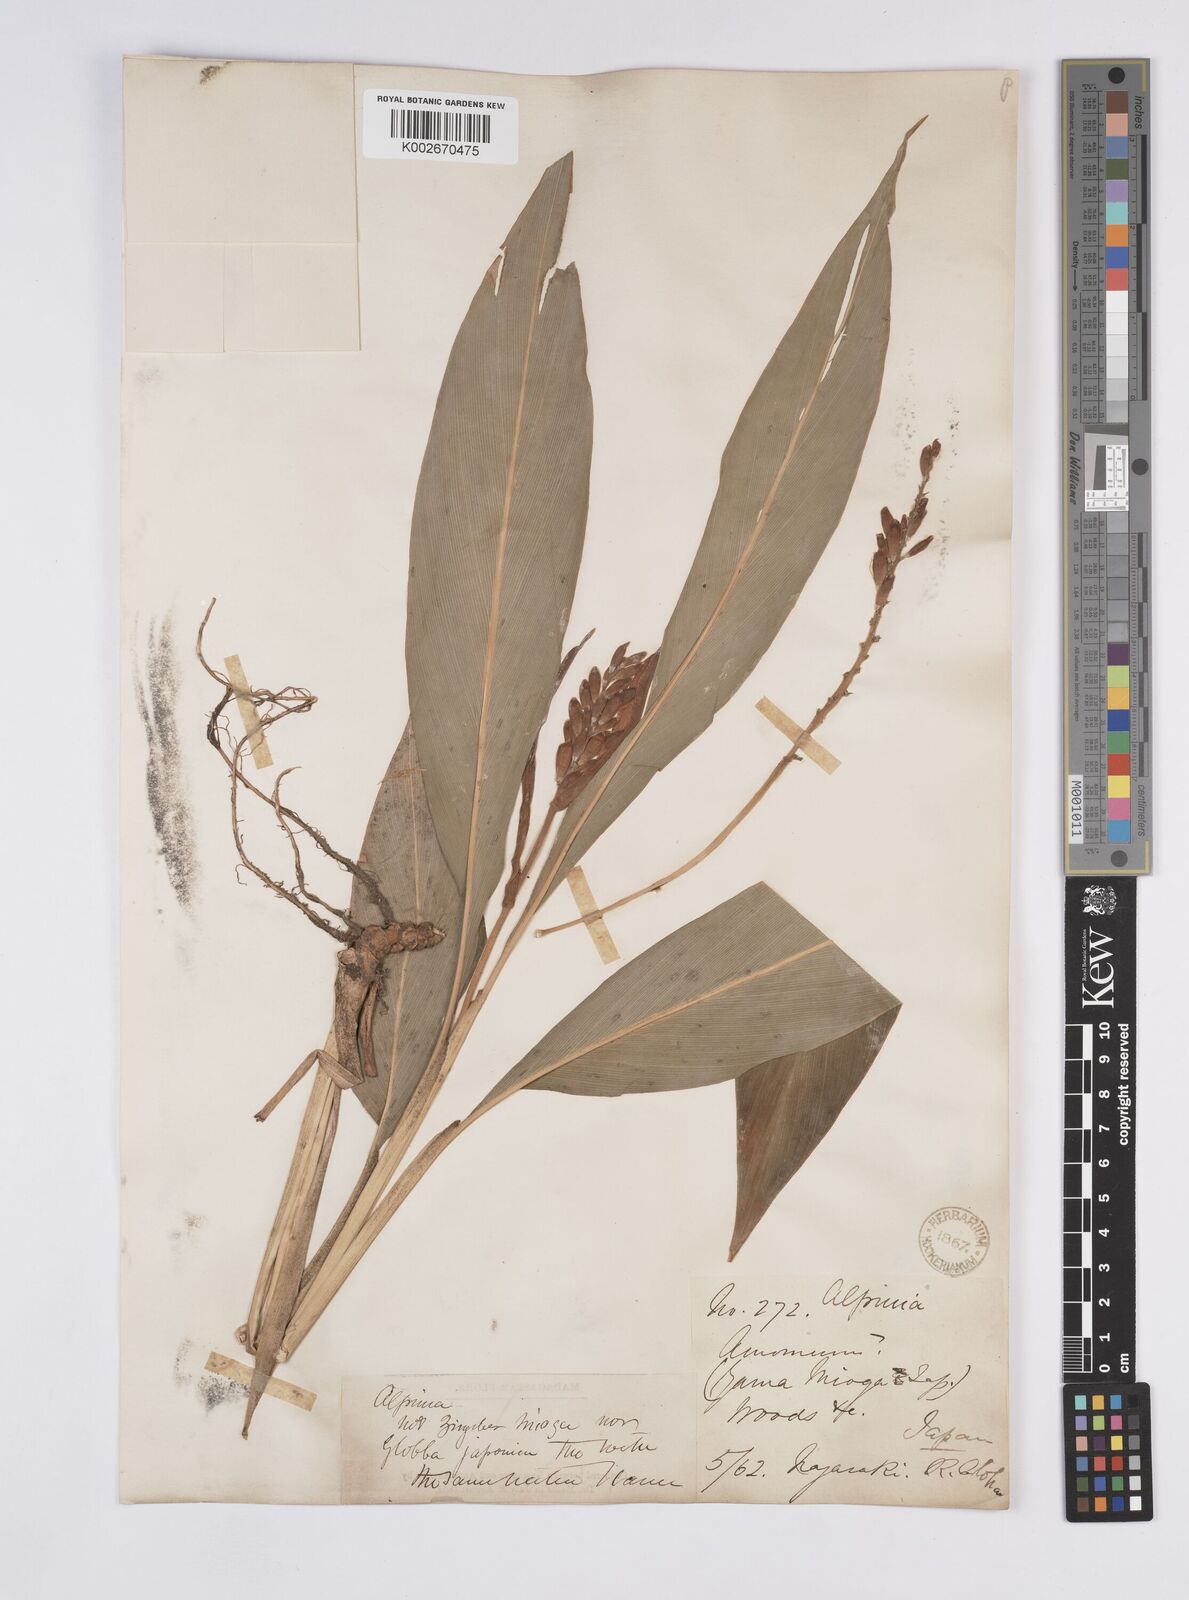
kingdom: Plantae
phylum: Tracheophyta
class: Liliopsida
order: Zingiberales
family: Zingiberaceae
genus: Alpinia
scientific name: Alpinia japonica
